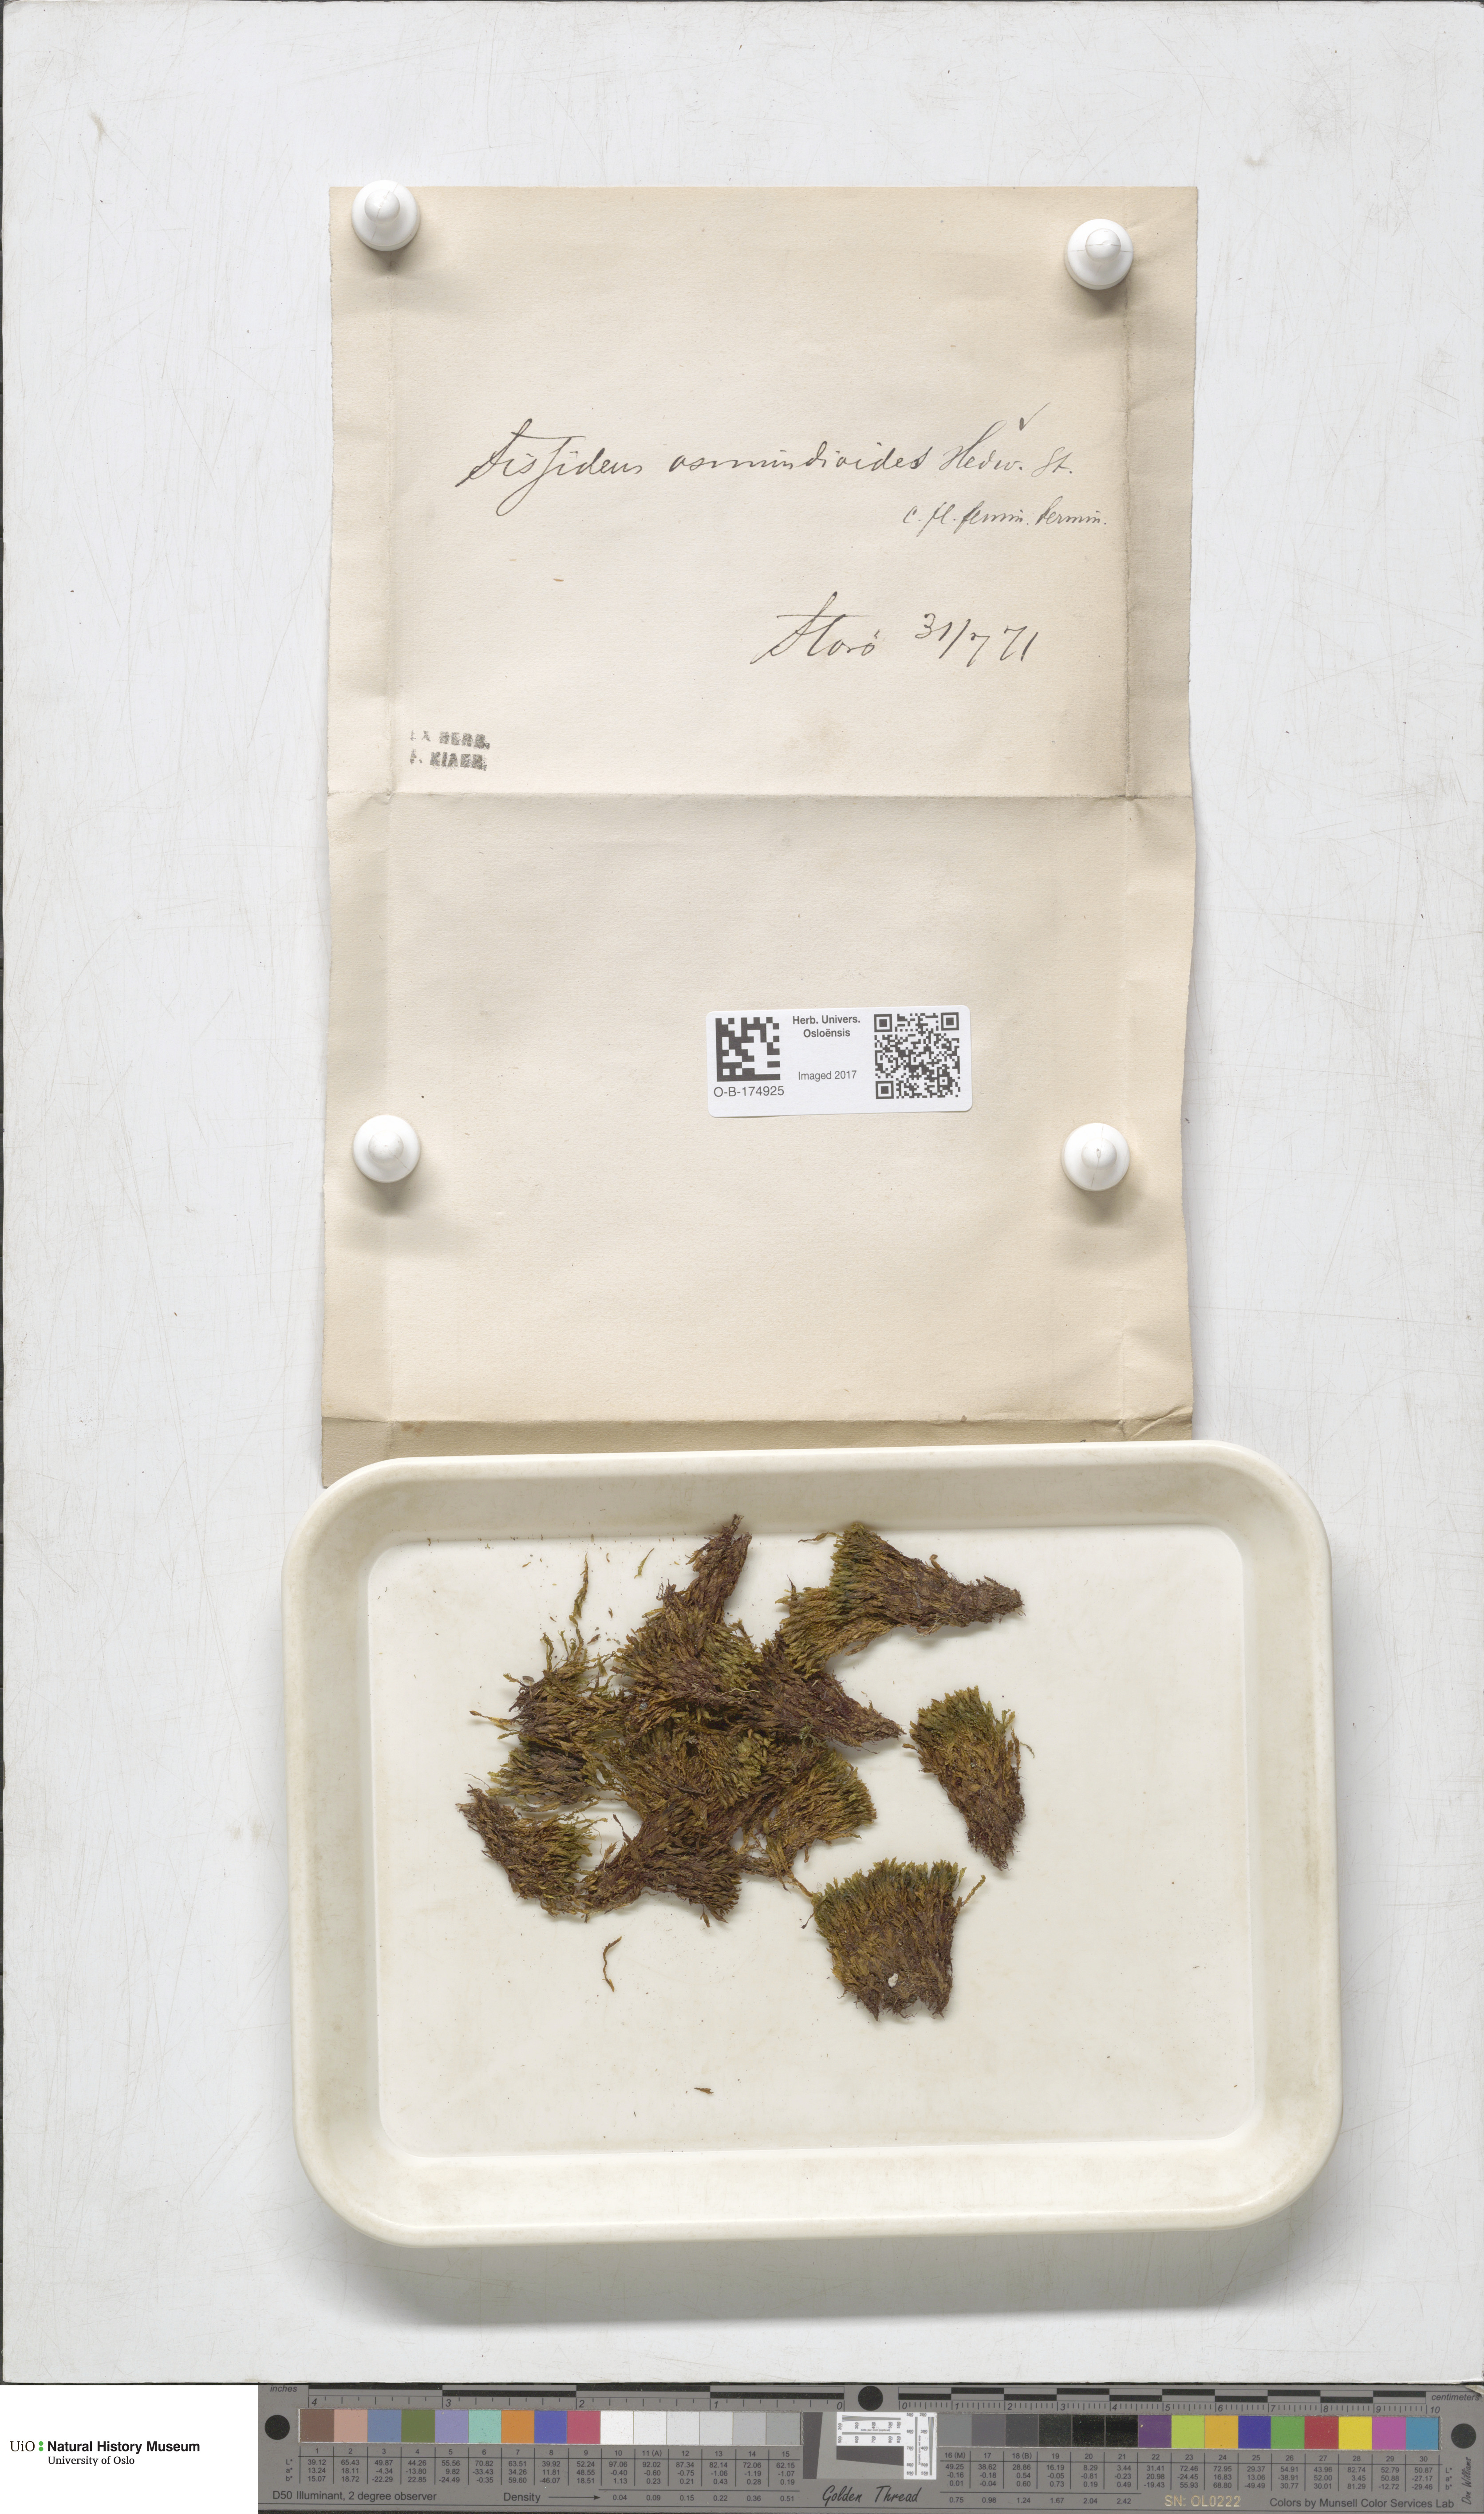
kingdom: Plantae
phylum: Bryophyta
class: Bryopsida
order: Dicranales
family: Fissidentaceae
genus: Fissidens
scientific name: Fissidens osmundoides
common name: Purple-stalked pocket moss
